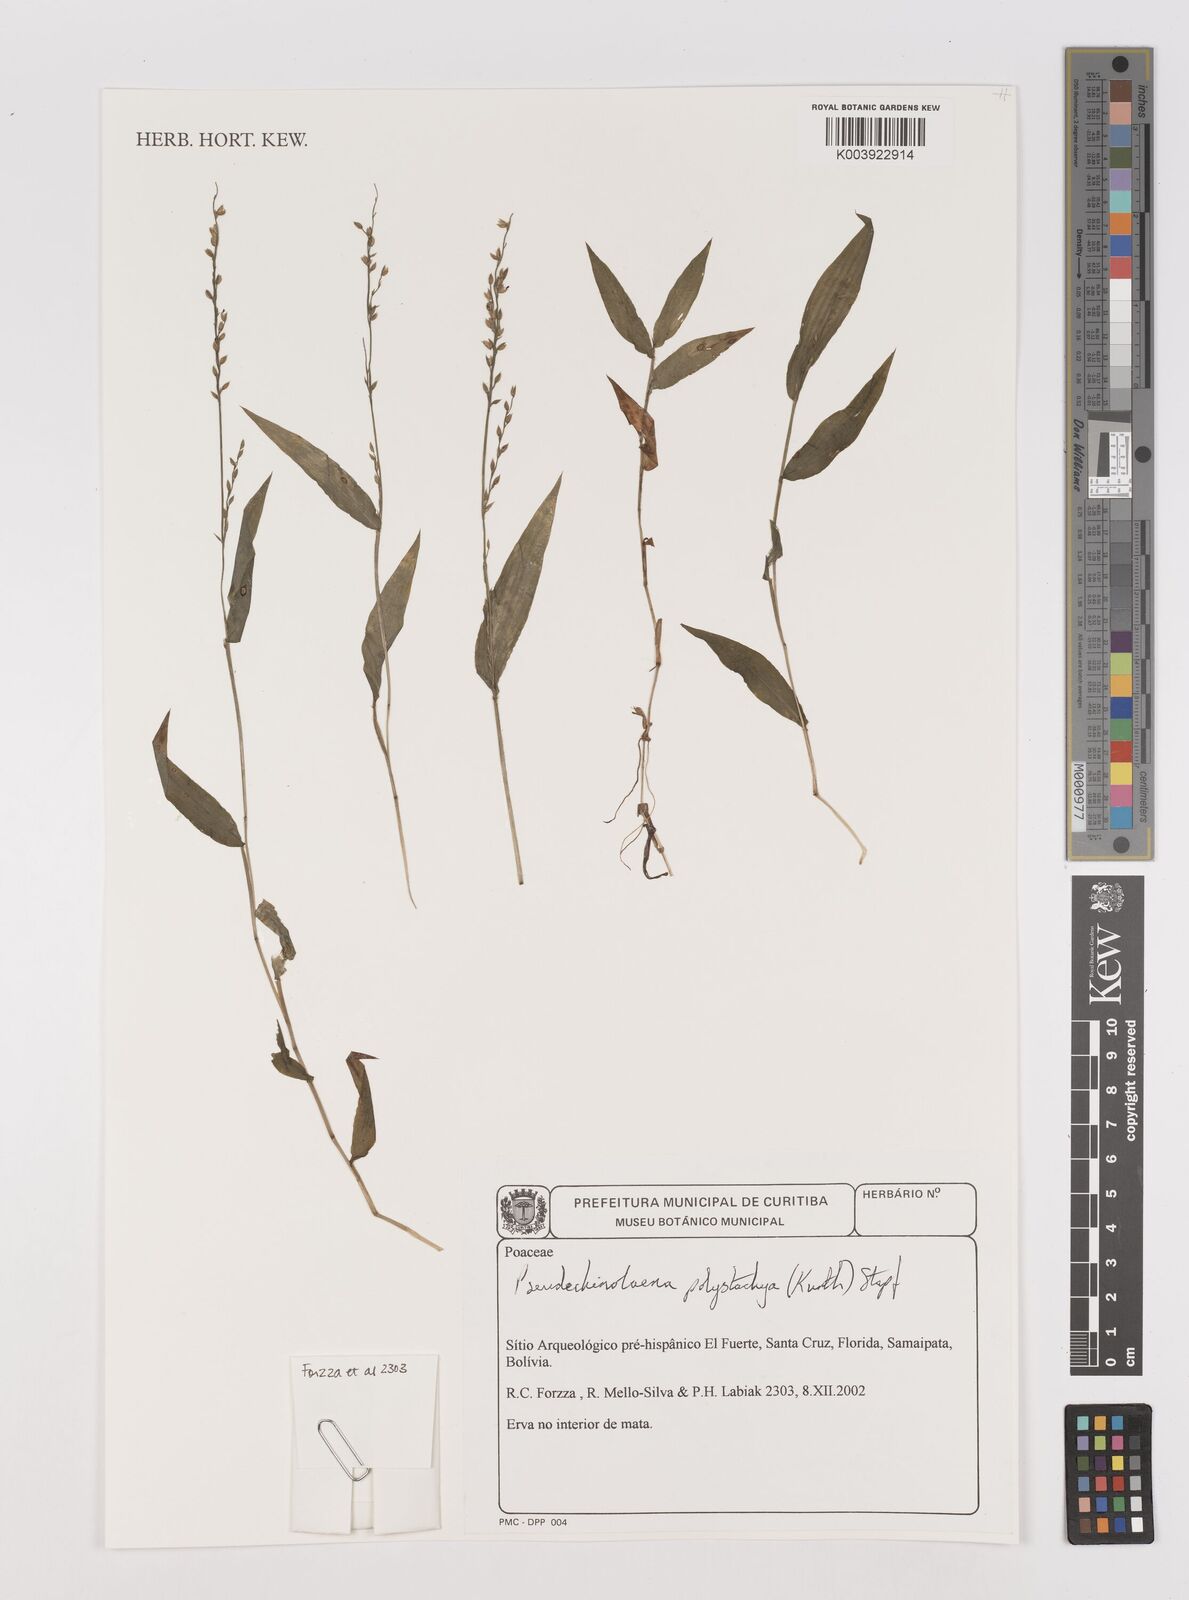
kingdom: Plantae
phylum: Tracheophyta
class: Liliopsida
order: Poales
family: Poaceae
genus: Pseudechinolaena
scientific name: Pseudechinolaena polystachya
